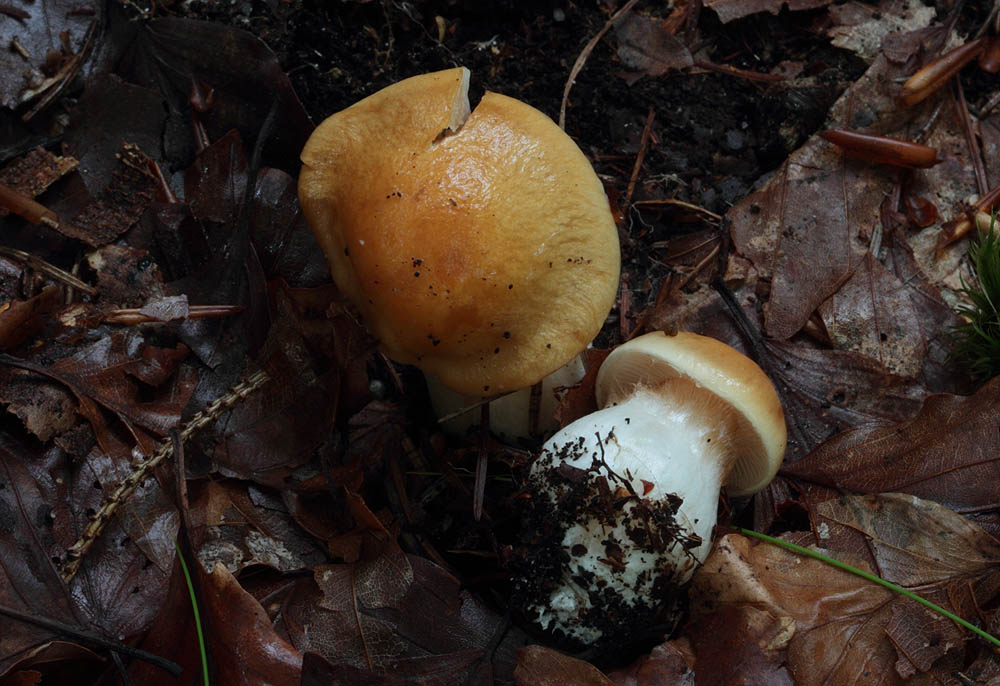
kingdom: Fungi
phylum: Basidiomycota
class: Agaricomycetes
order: Agaricales
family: Cortinariaceae
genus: Thaxterogaster
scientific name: Thaxterogaster emollitus
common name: besk slørhat
